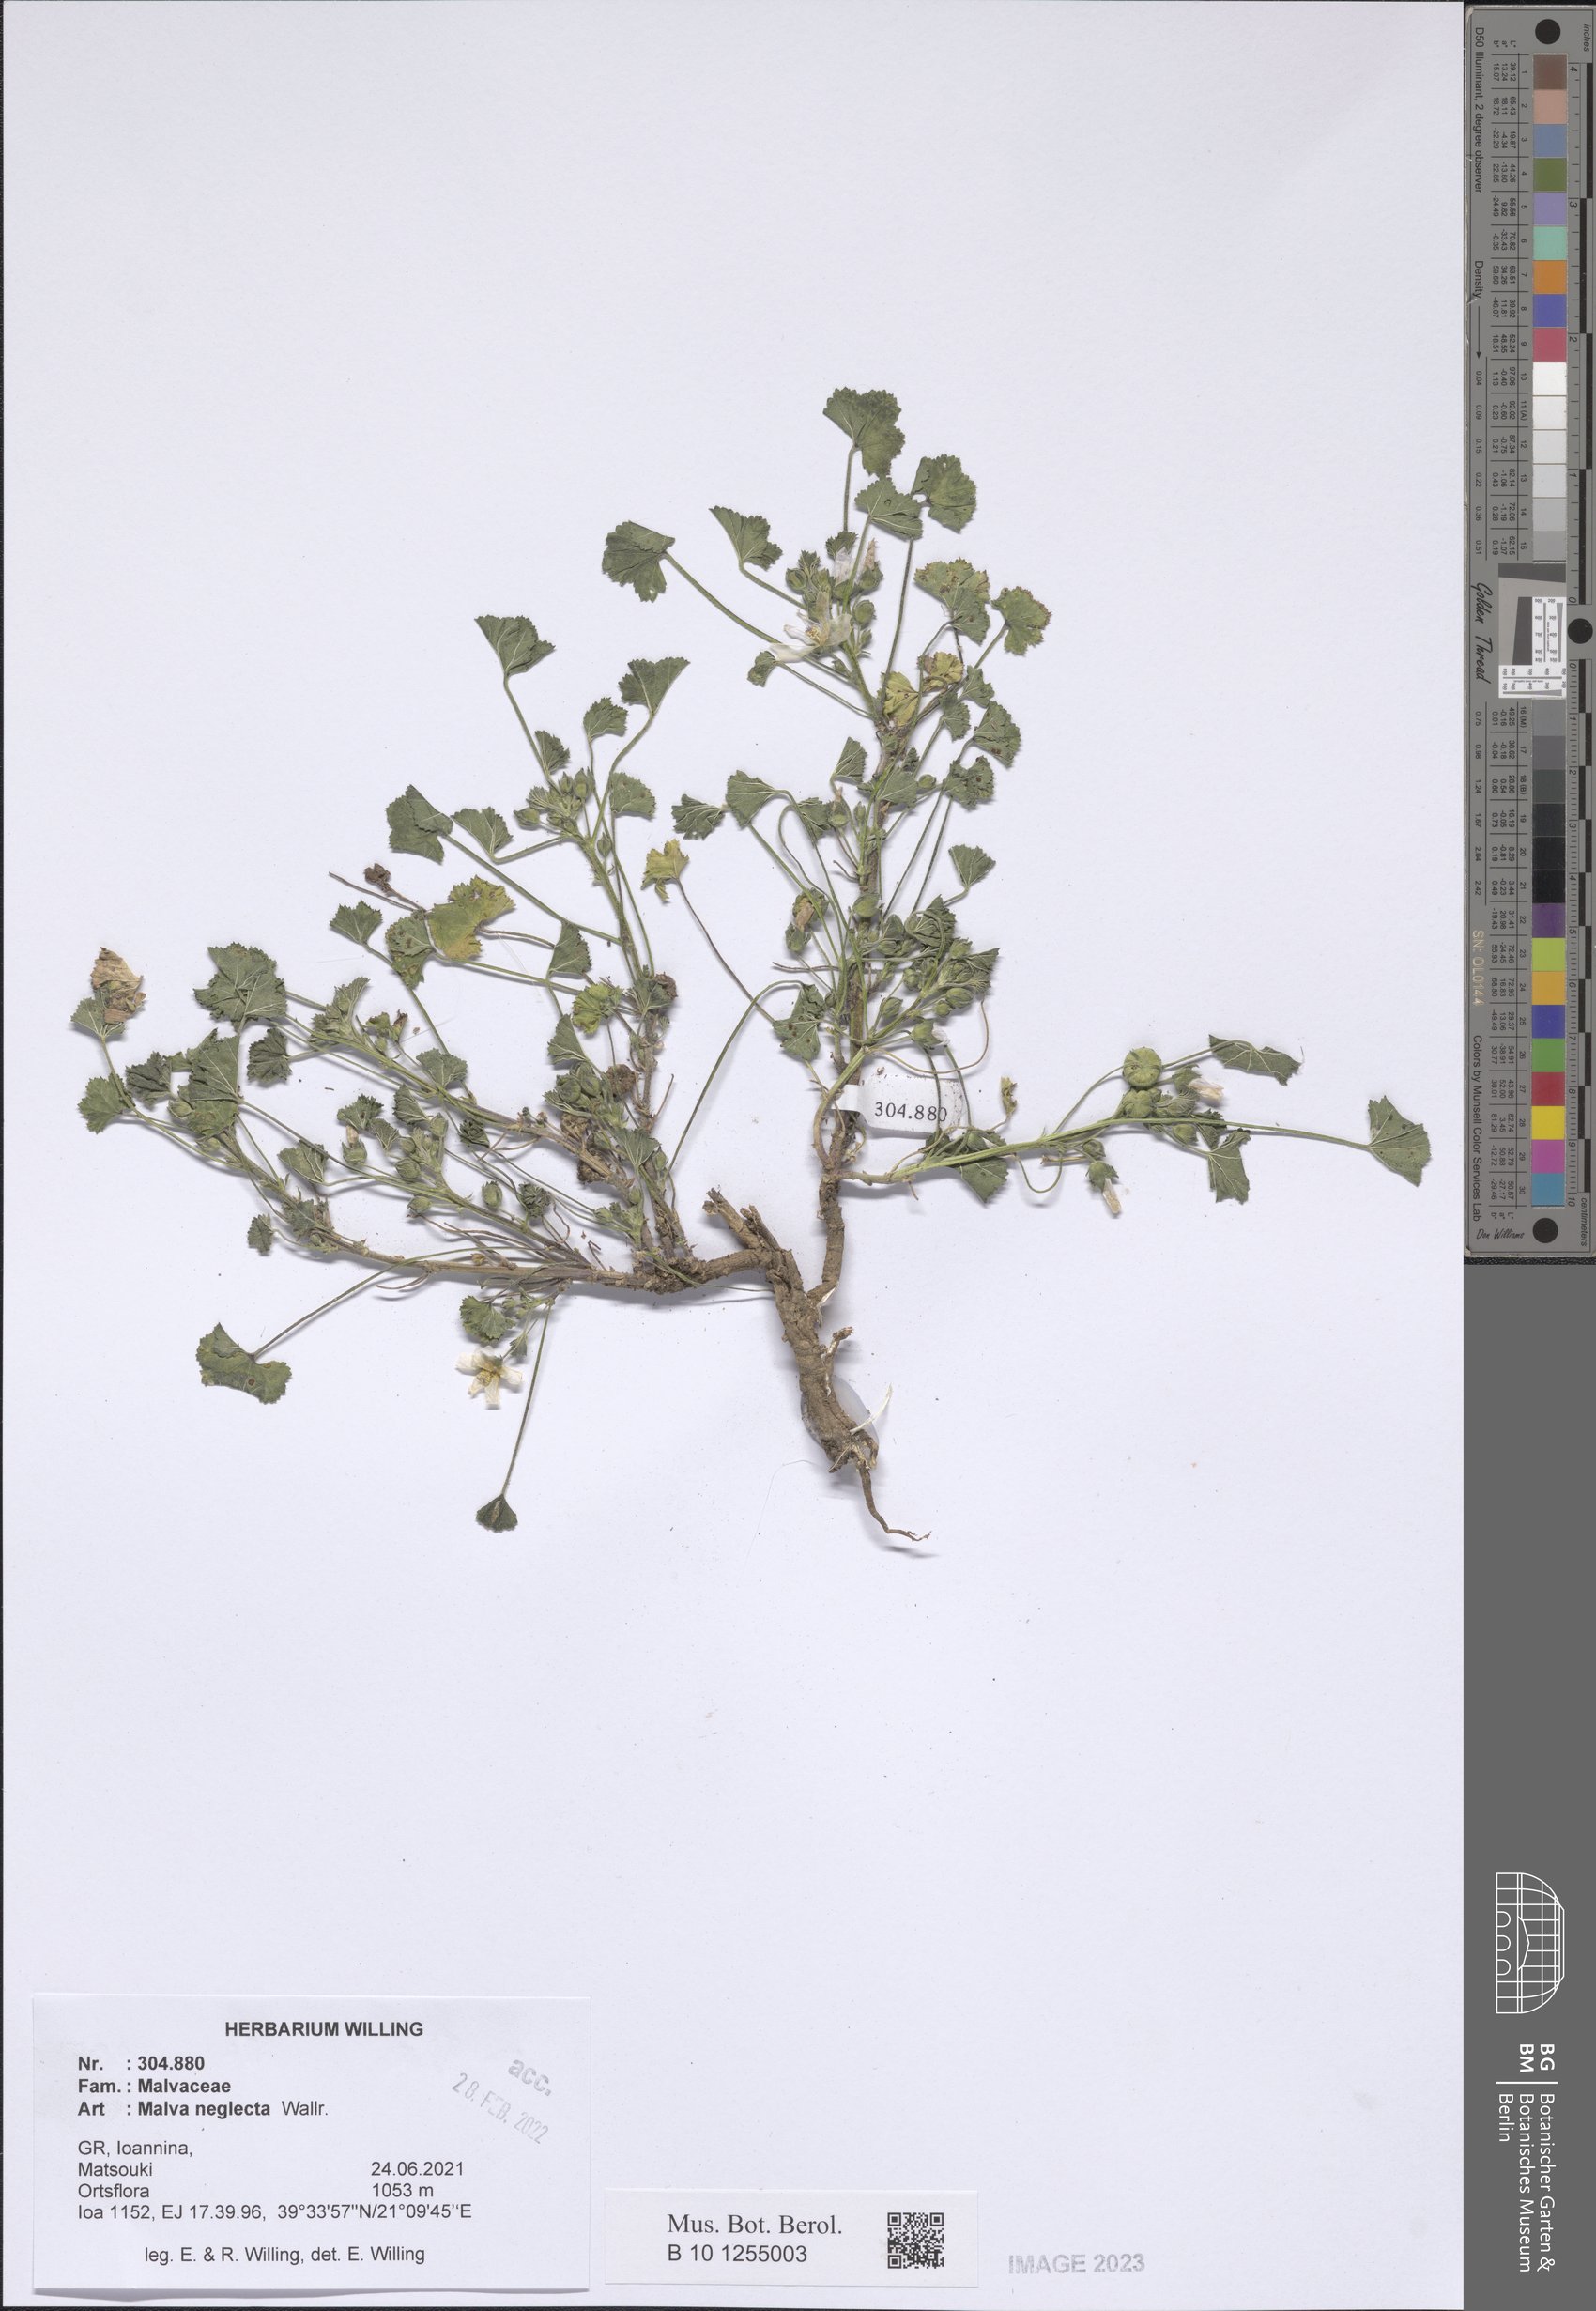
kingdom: Plantae
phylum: Tracheophyta
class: Magnoliopsida
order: Malvales
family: Malvaceae
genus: Malva
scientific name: Malva neglecta
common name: Common mallow
